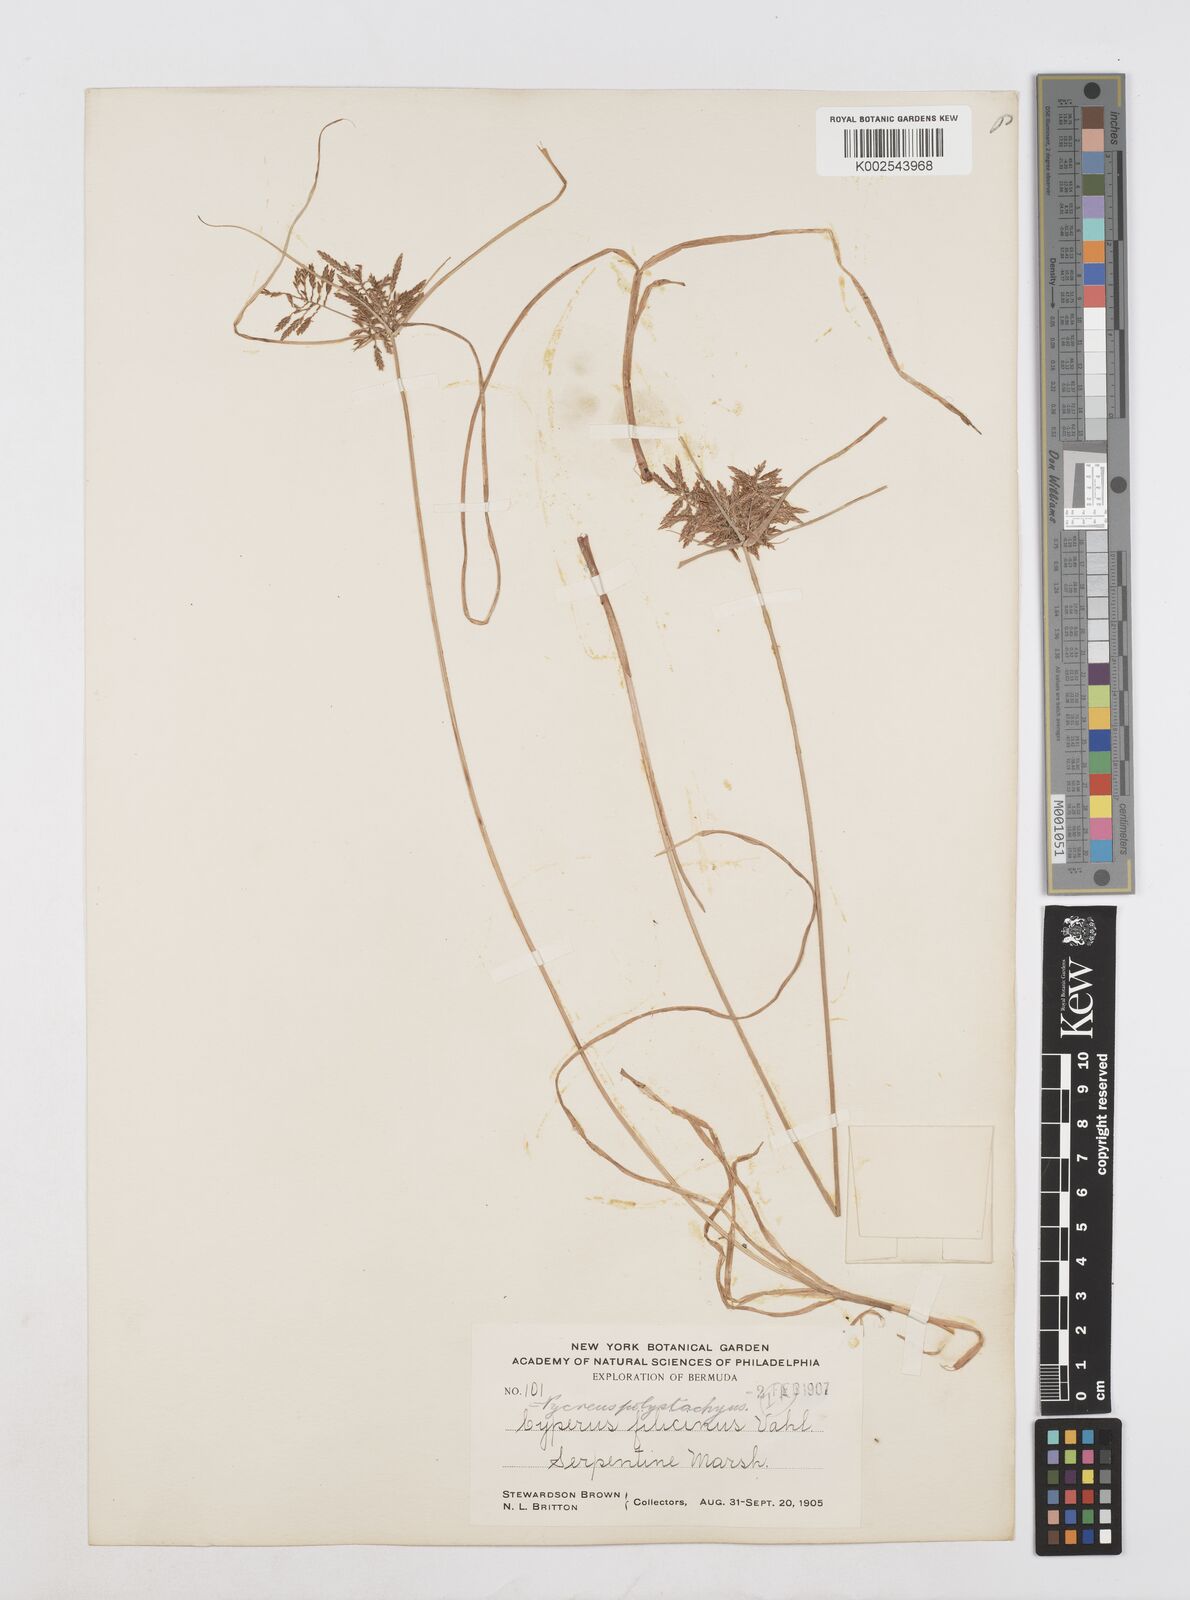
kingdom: Plantae
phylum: Tracheophyta
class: Liliopsida
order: Poales
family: Cyperaceae
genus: Cyperus
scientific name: Cyperus polystachyos
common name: Bunchy flat sedge
